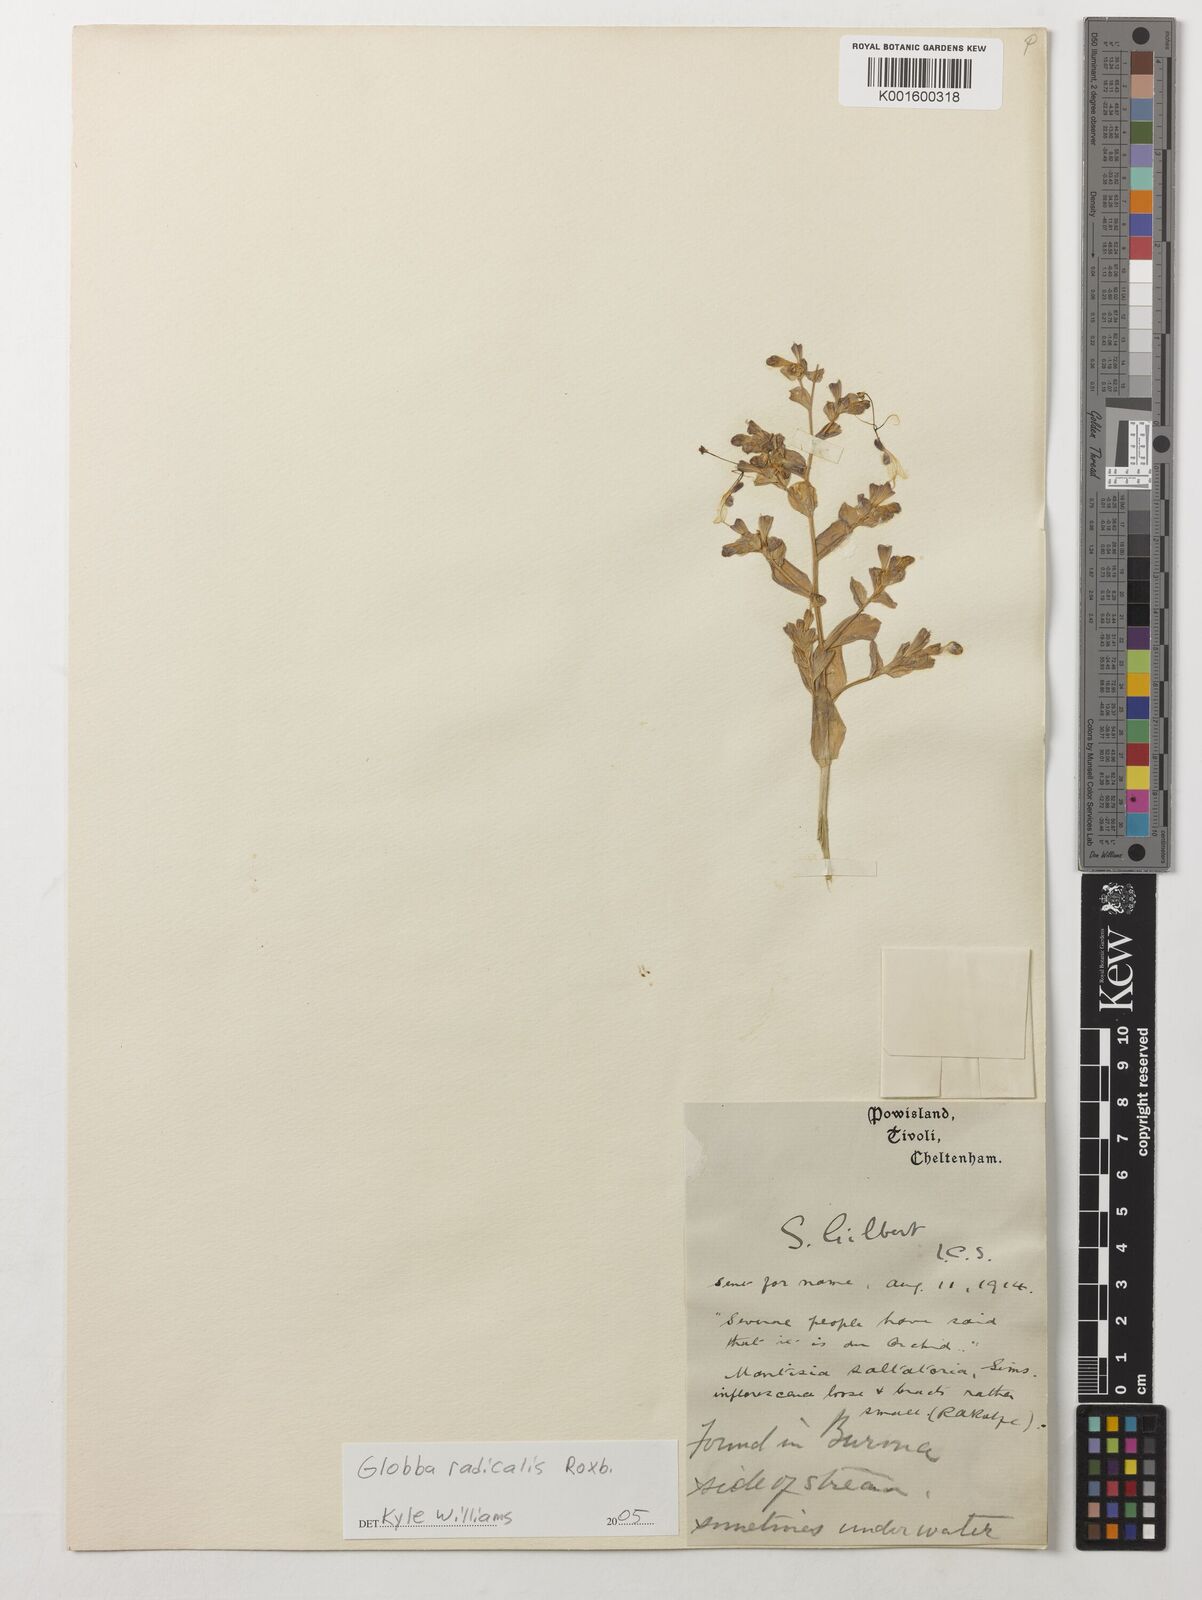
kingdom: Plantae
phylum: Tracheophyta
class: Liliopsida
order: Zingiberales
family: Zingiberaceae
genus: Globba
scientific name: Globba radicalis
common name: Dancing girl
